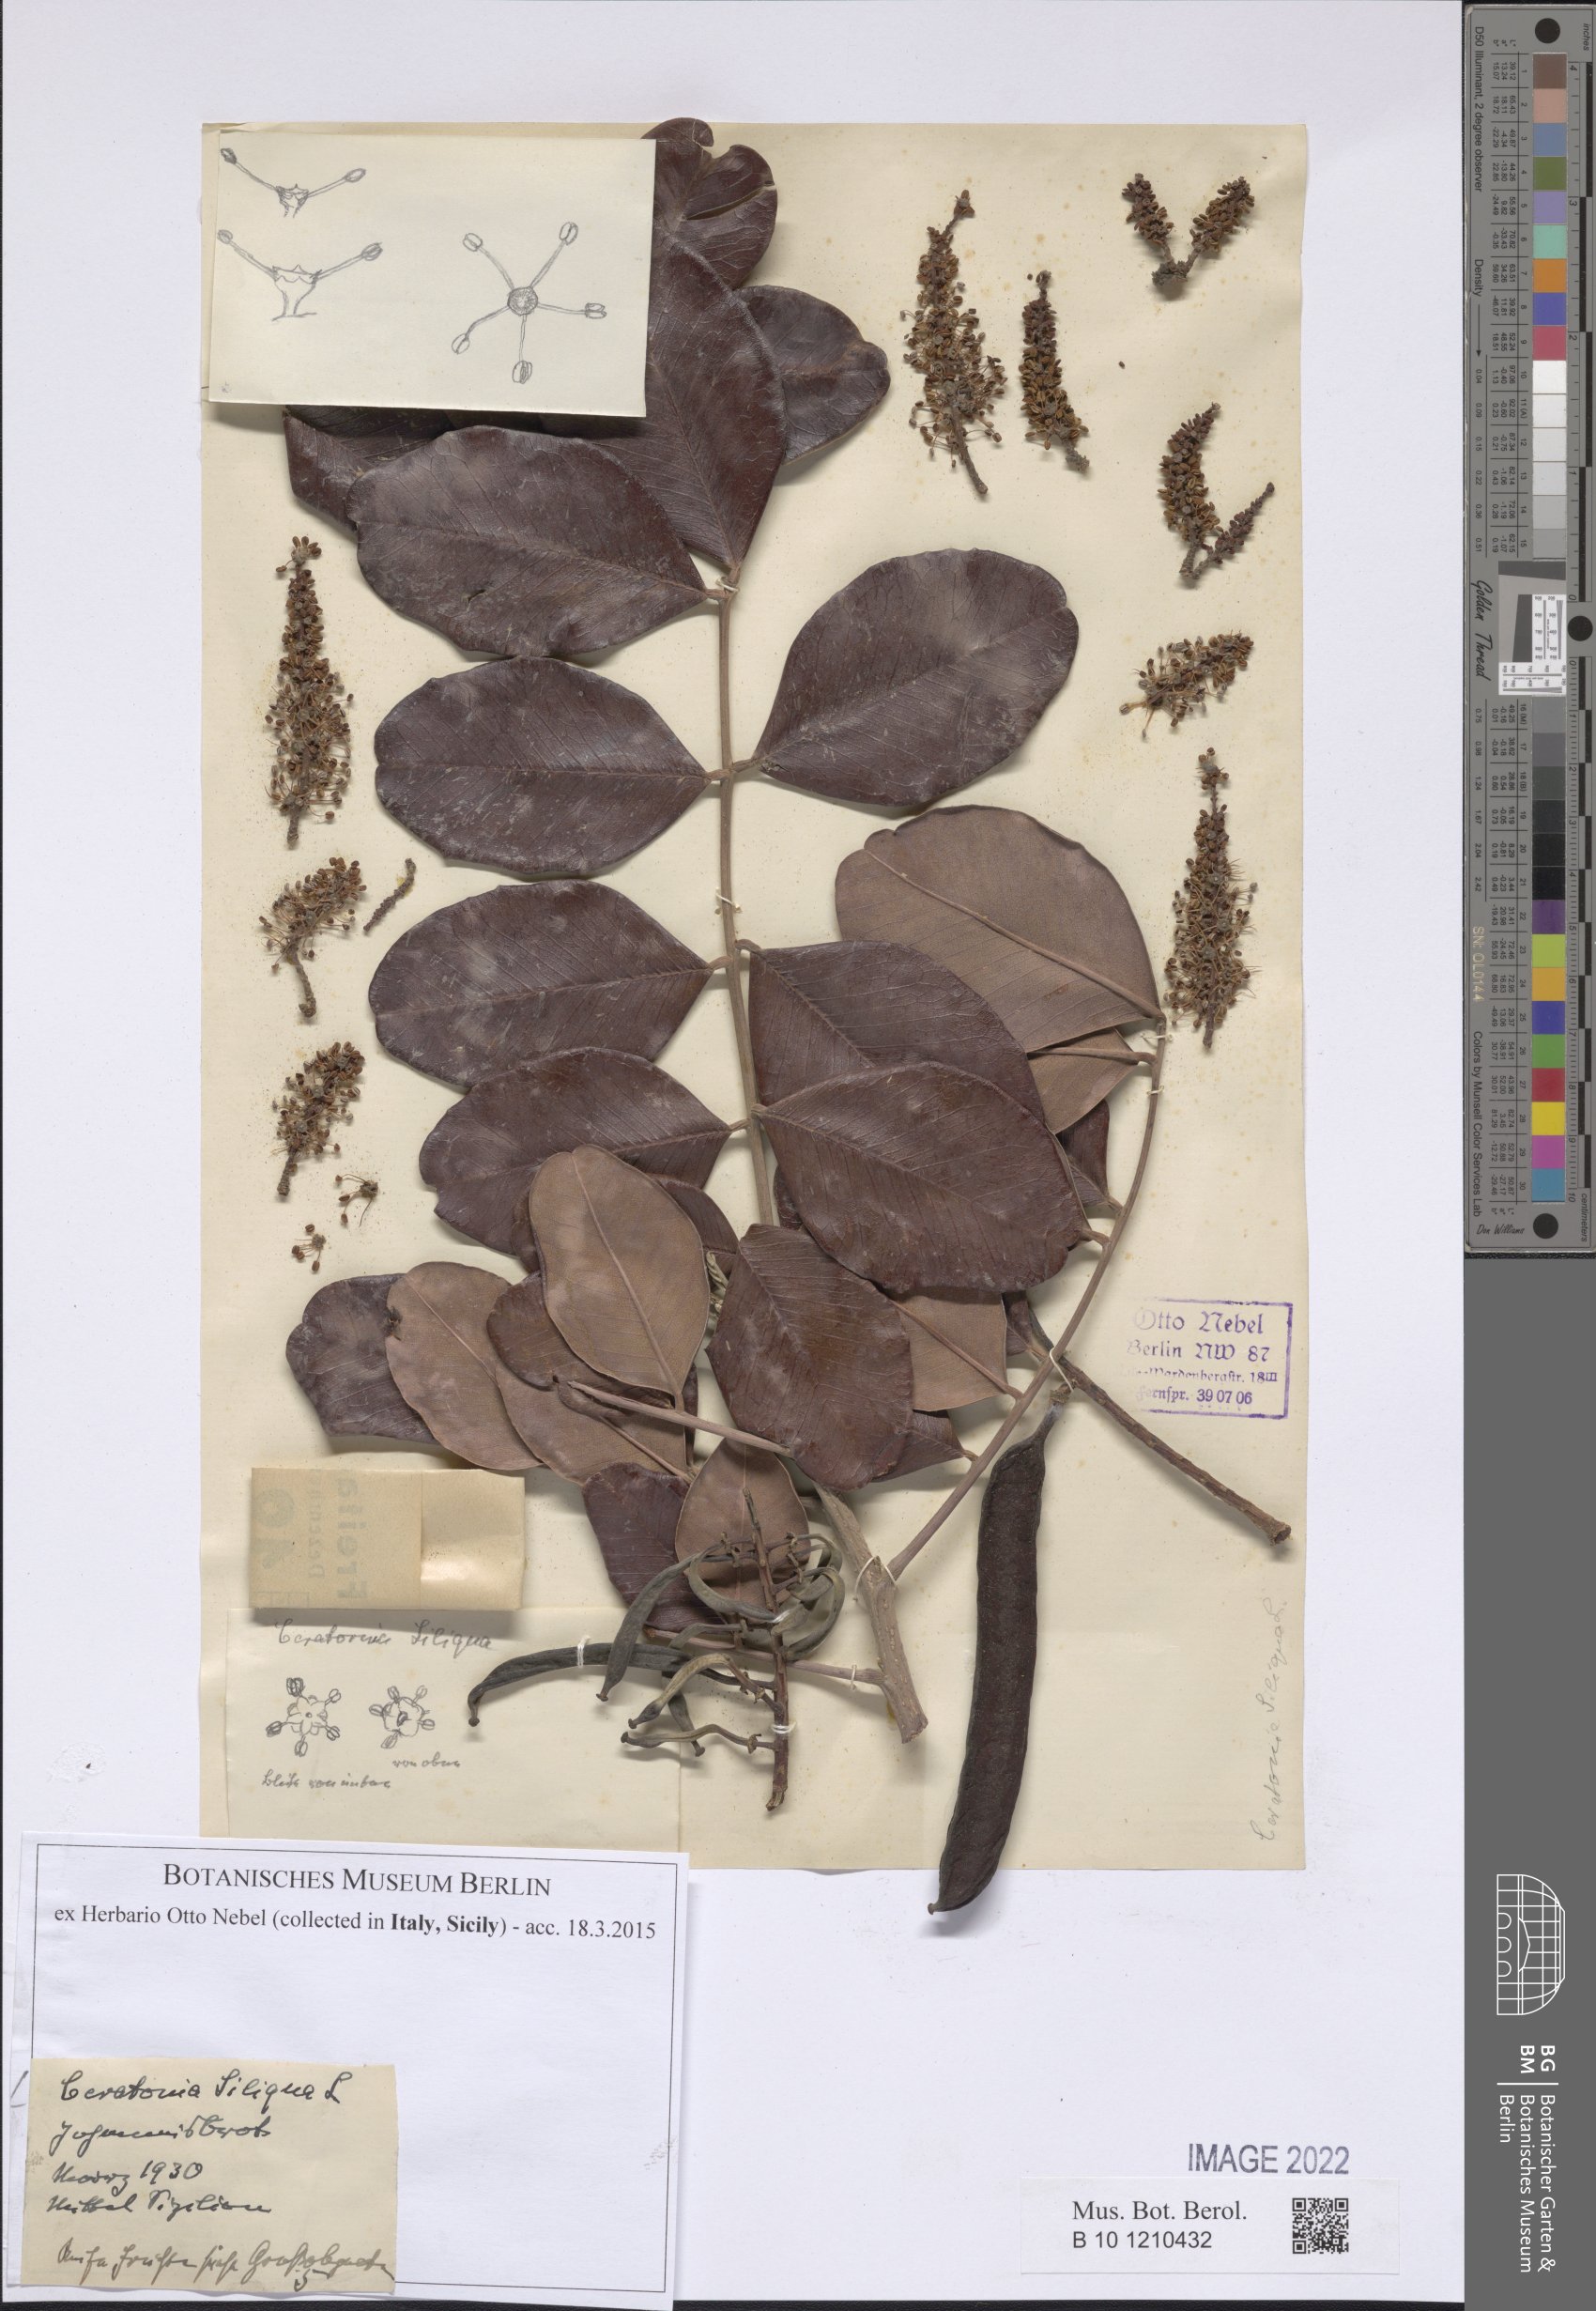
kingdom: Plantae
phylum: Tracheophyta
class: Magnoliopsida
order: Fabales
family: Fabaceae
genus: Ceratonia
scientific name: Ceratonia siliqua
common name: Carob
